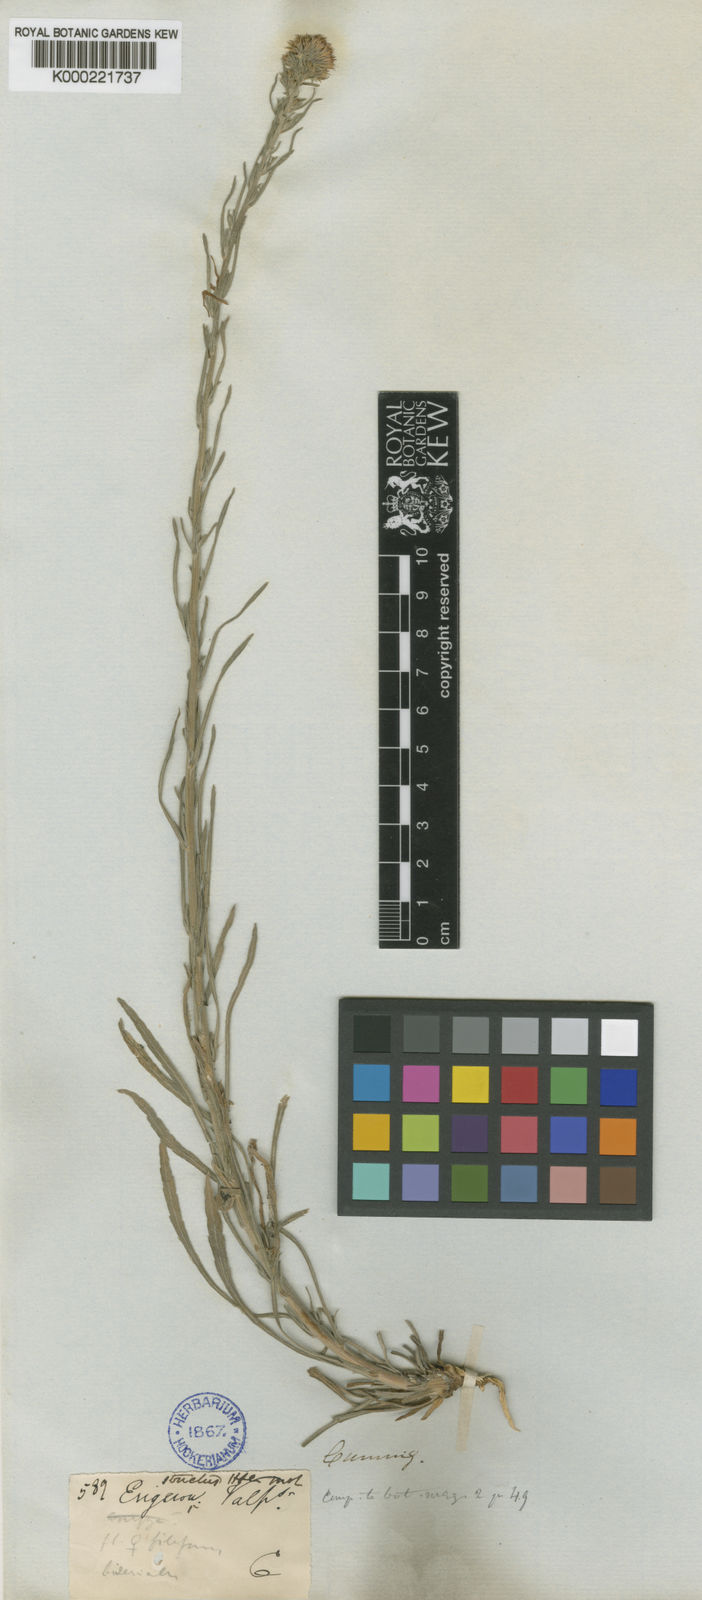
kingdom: Plantae
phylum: Tracheophyta
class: Magnoliopsida
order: Asterales
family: Asteraceae
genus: Erigeron
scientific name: Erigeron canadensis
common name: Canadian fleabane
